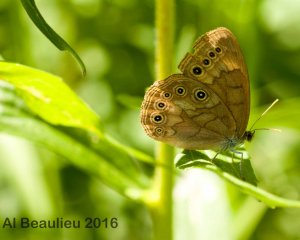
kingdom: Animalia
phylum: Arthropoda
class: Insecta
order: Lepidoptera
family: Nymphalidae
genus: Lethe
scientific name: Lethe eurydice
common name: Eyed Brown
